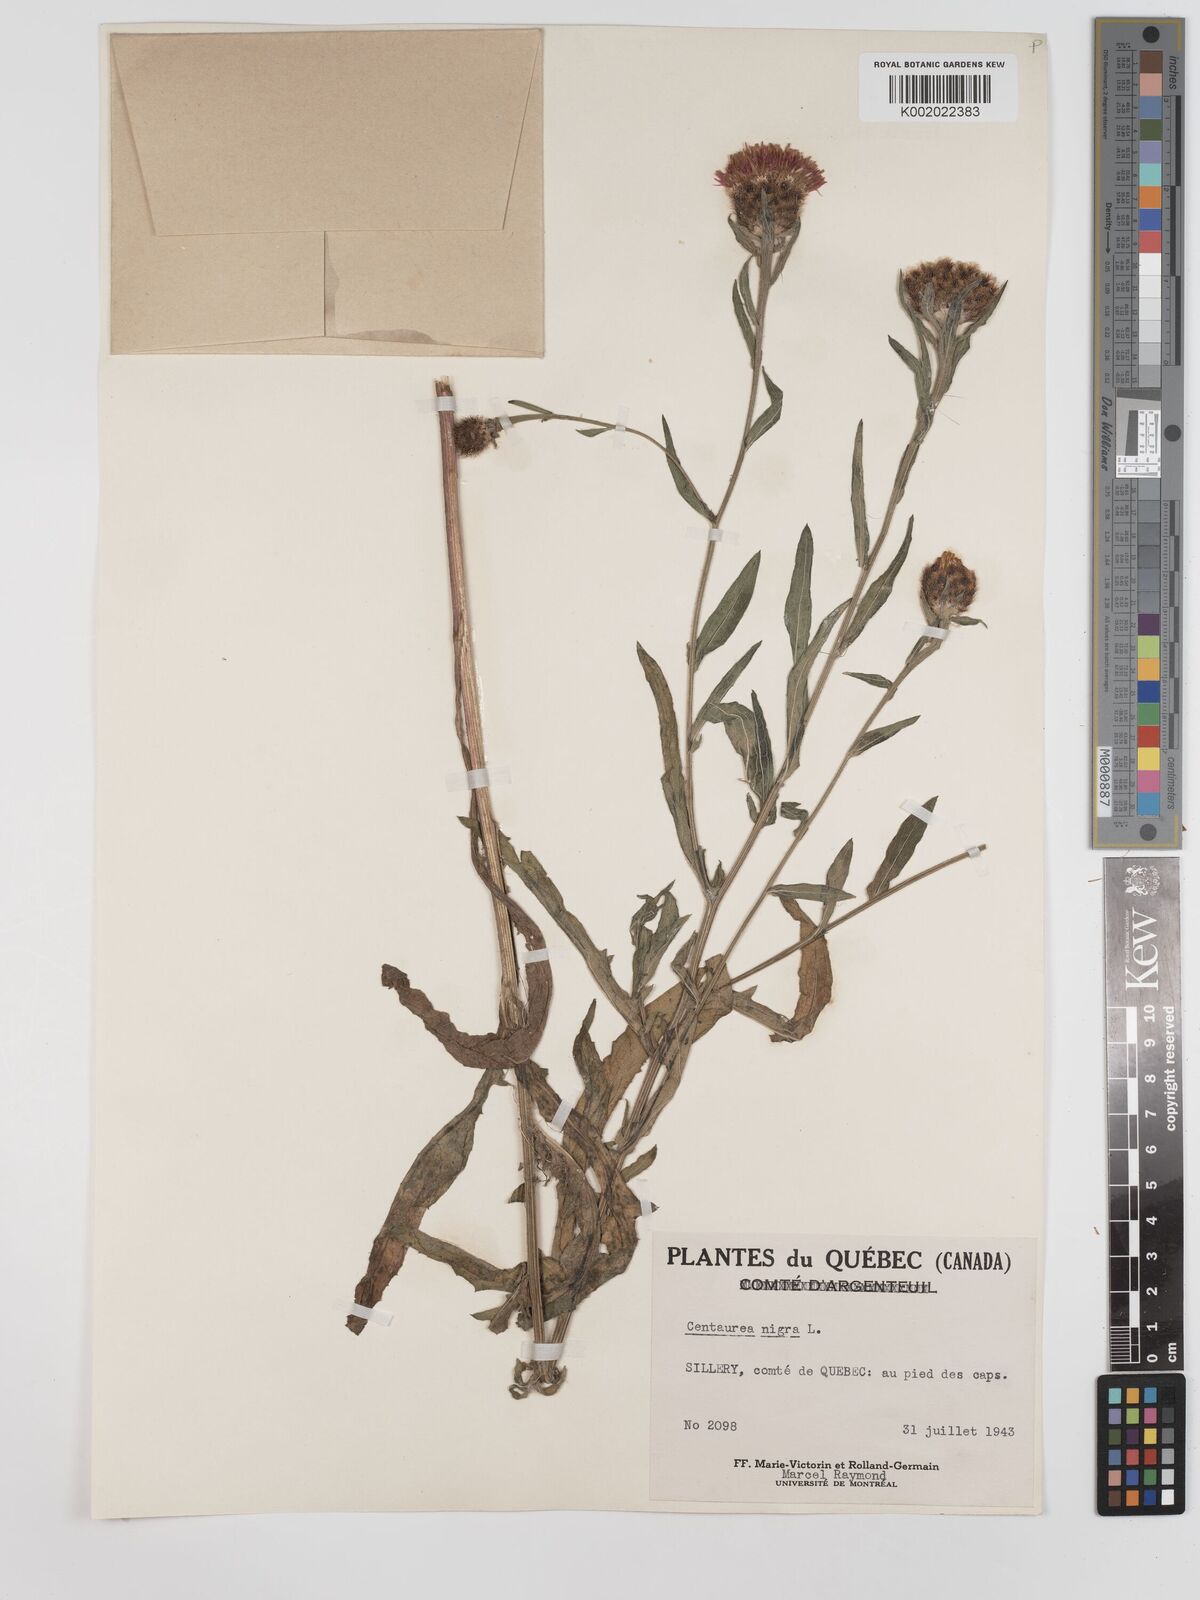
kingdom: Plantae
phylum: Tracheophyta
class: Magnoliopsida
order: Asterales
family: Asteraceae
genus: Centaurea
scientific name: Centaurea nigra
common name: Lesser knapweed
